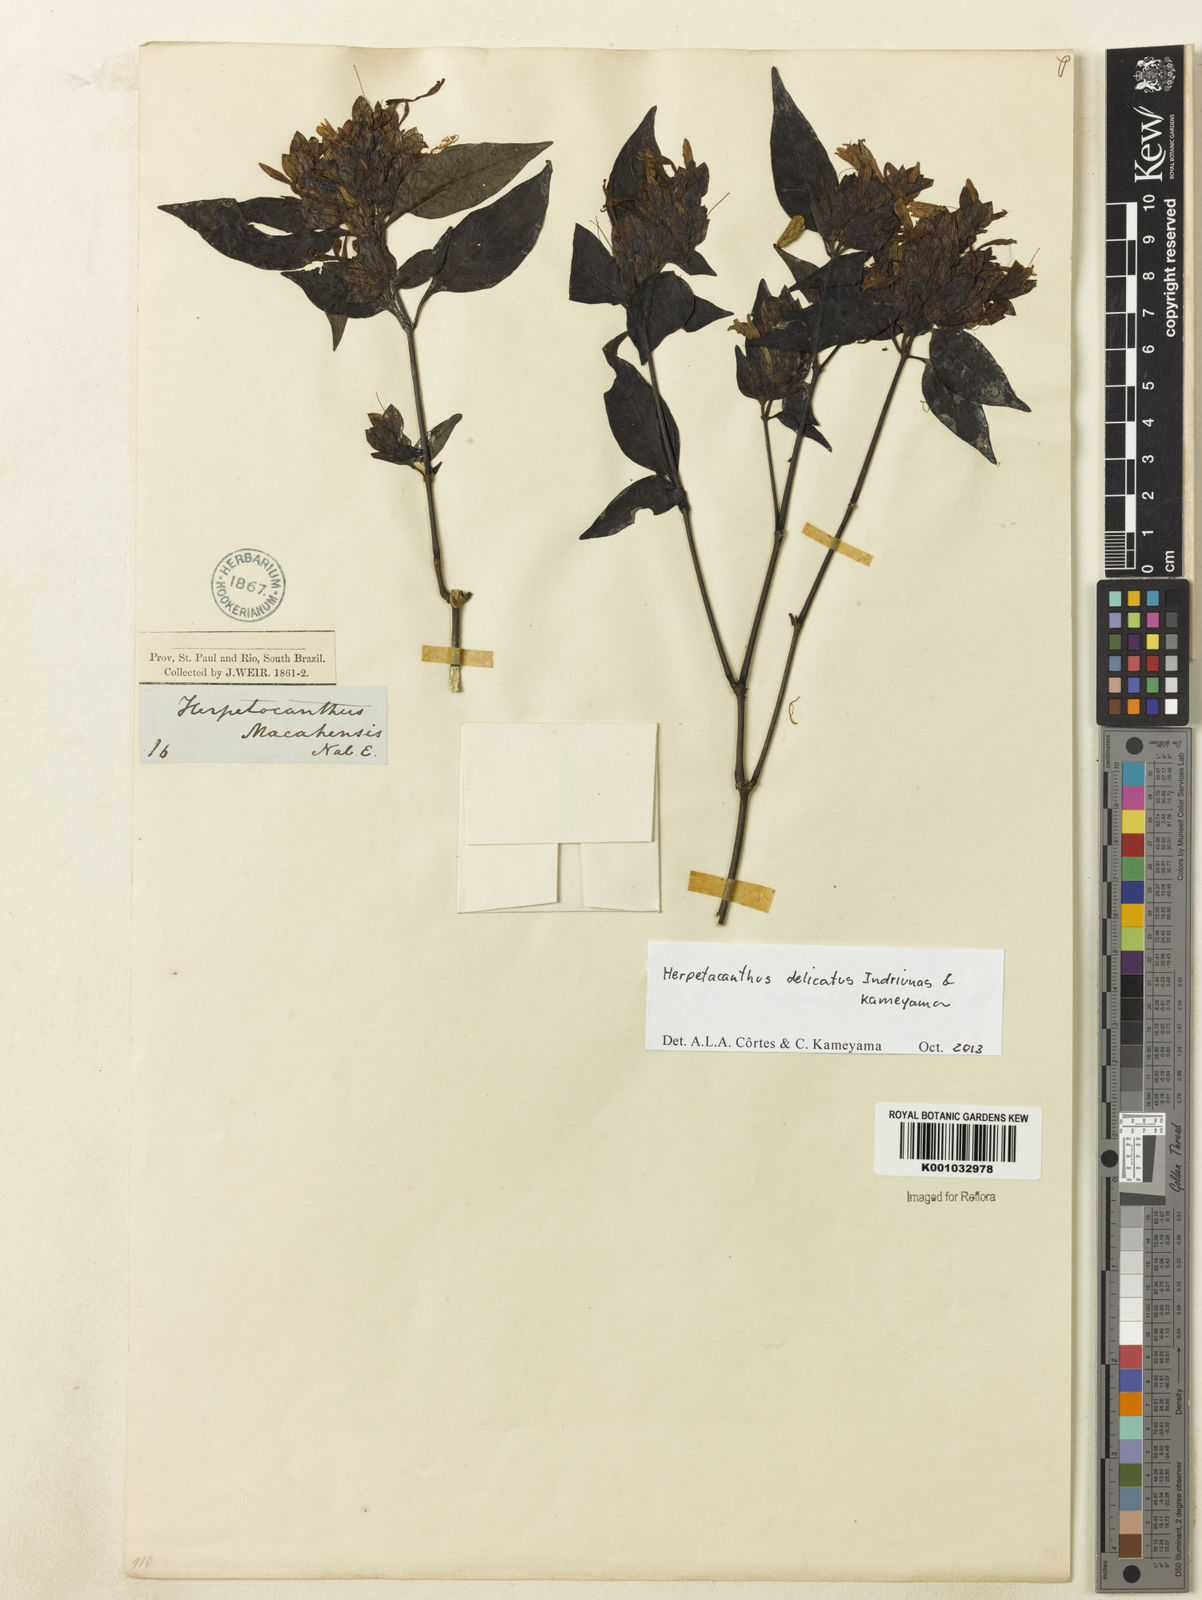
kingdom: Plantae
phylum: Tracheophyta
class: Magnoliopsida
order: Lamiales
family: Acanthaceae
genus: Herpetacanthus
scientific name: Herpetacanthus delicatus
